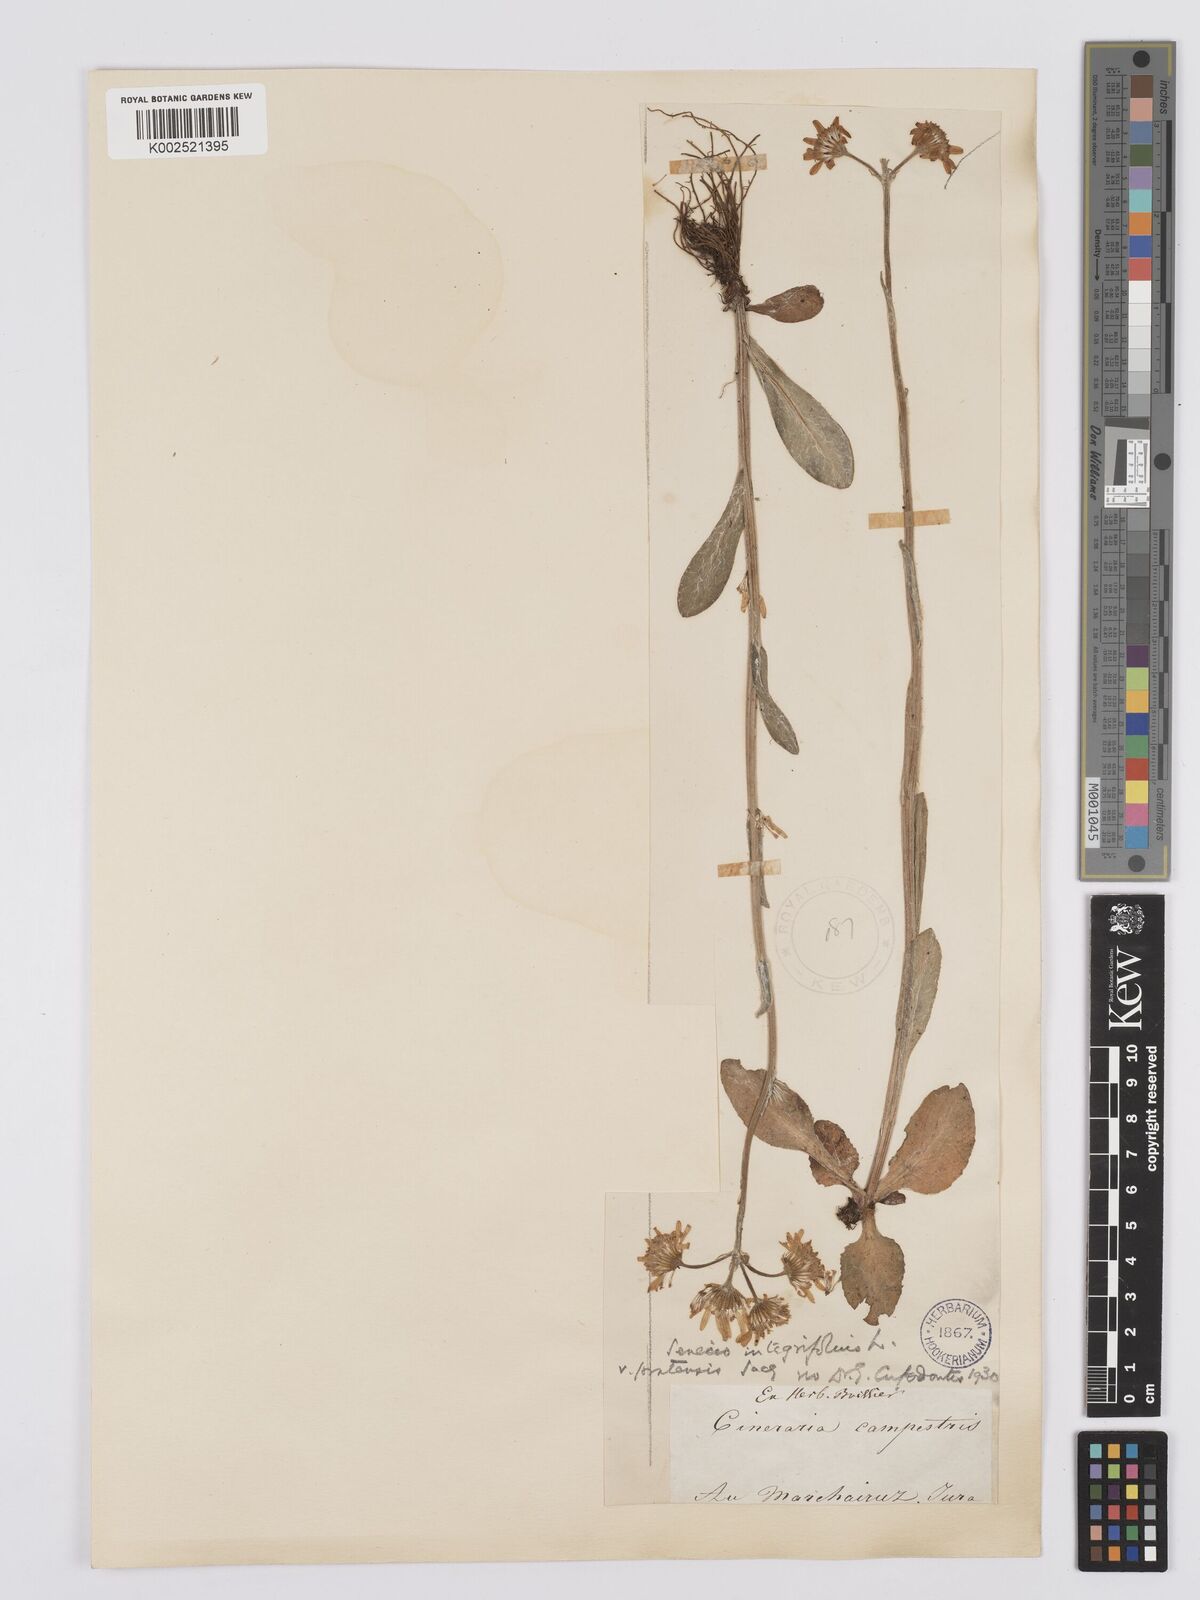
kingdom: Plantae
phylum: Tracheophyta
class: Magnoliopsida
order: Asterales
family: Asteraceae
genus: Tephroseris
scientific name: Tephroseris integrifolia
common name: Field fleawort
